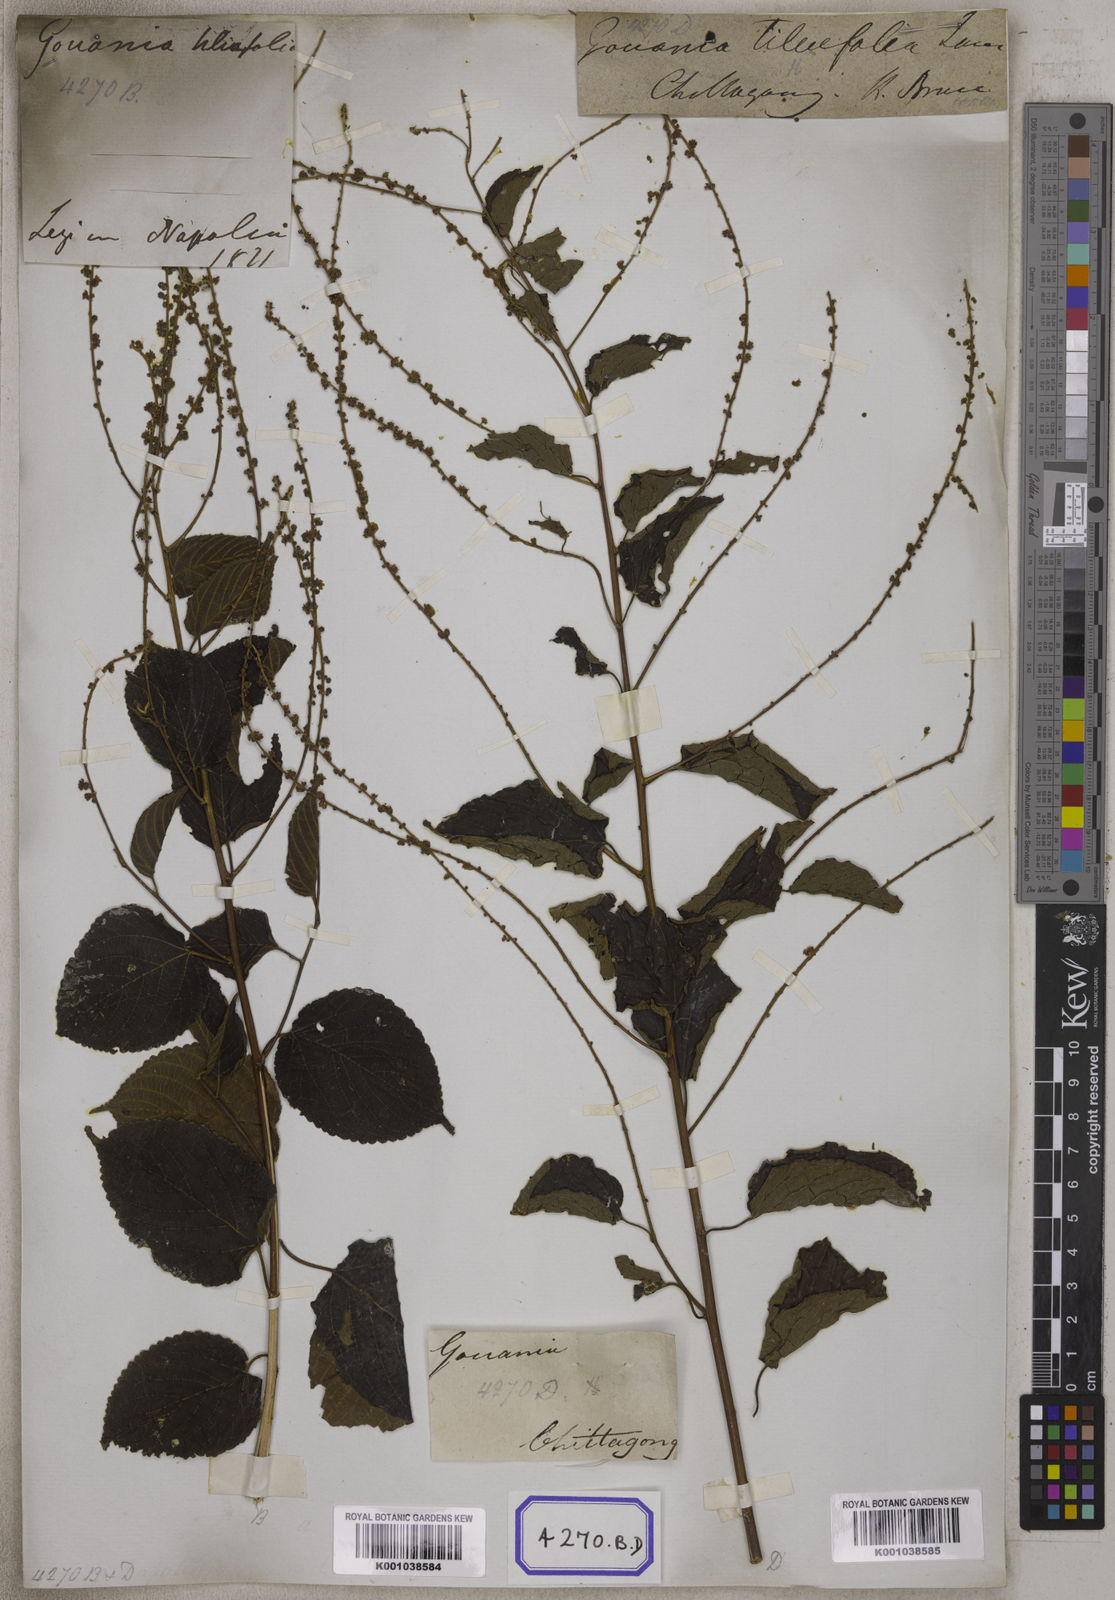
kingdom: Plantae
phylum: Tracheophyta
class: Magnoliopsida
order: Rosales
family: Rhamnaceae
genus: Gouania
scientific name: Gouania leptostachya
